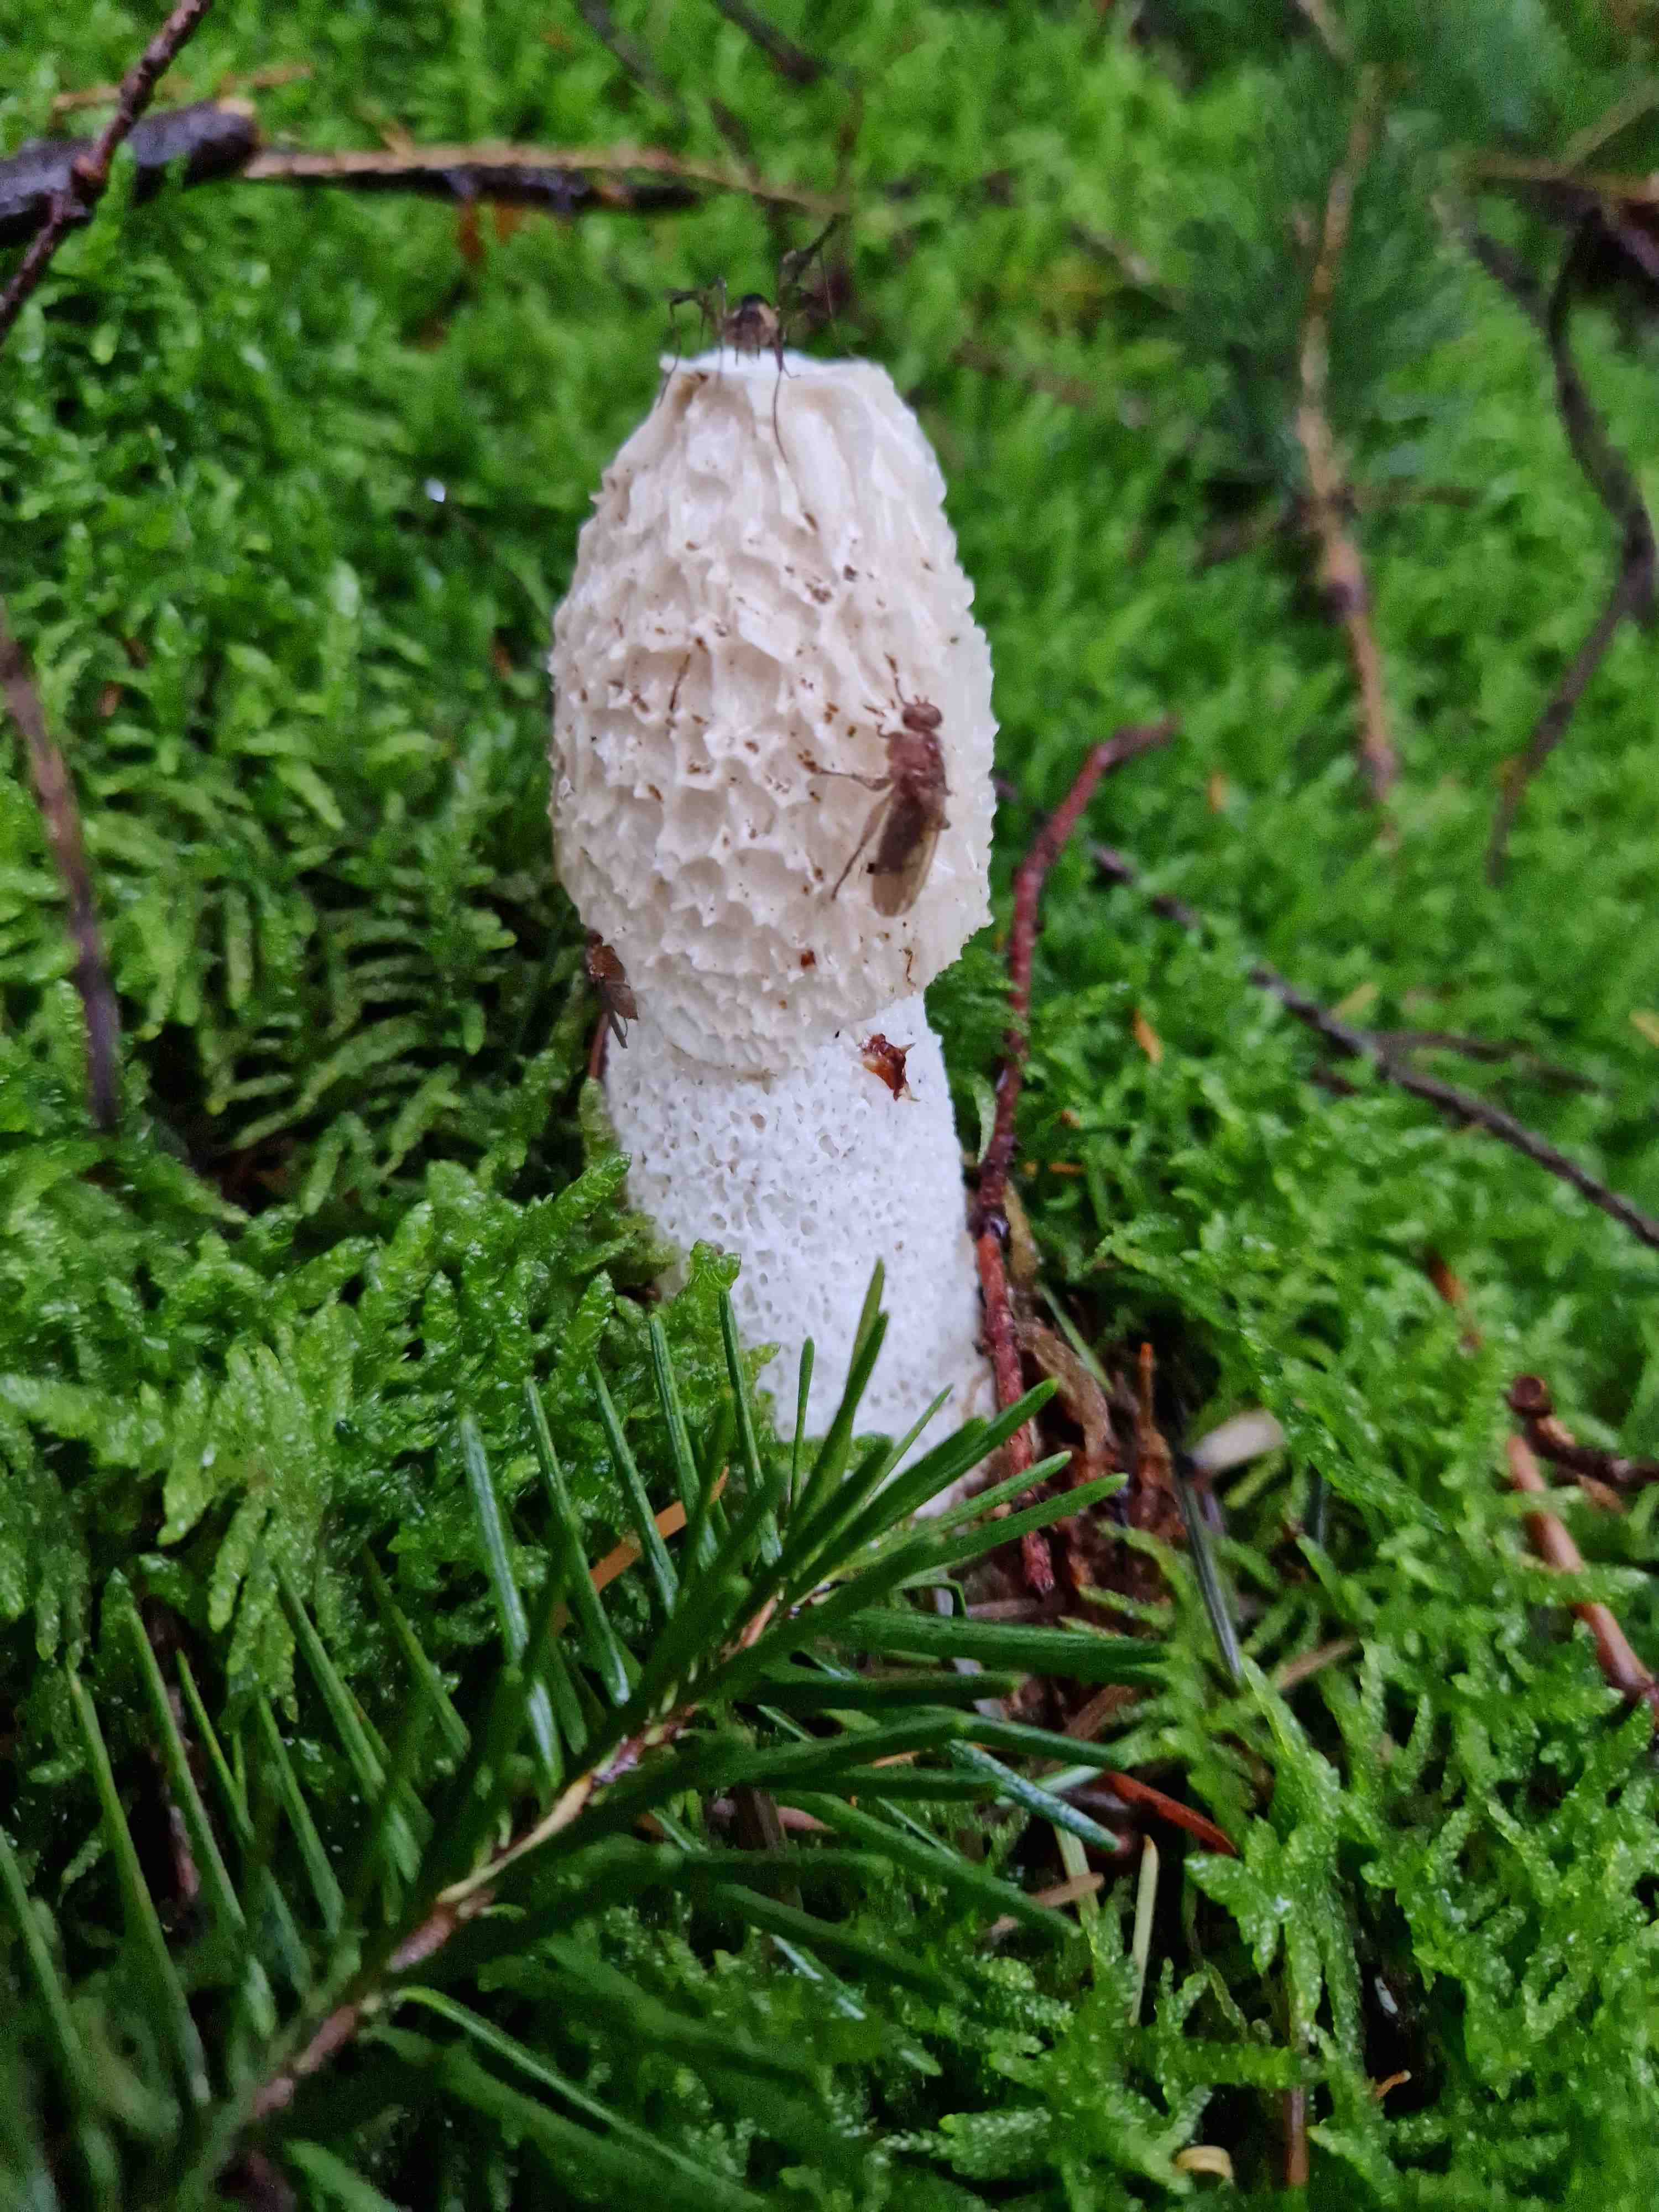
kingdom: Fungi
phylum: Basidiomycota
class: Agaricomycetes
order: Phallales
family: Phallaceae
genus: Phallus
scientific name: Phallus impudicus
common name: almindelig stinksvamp
